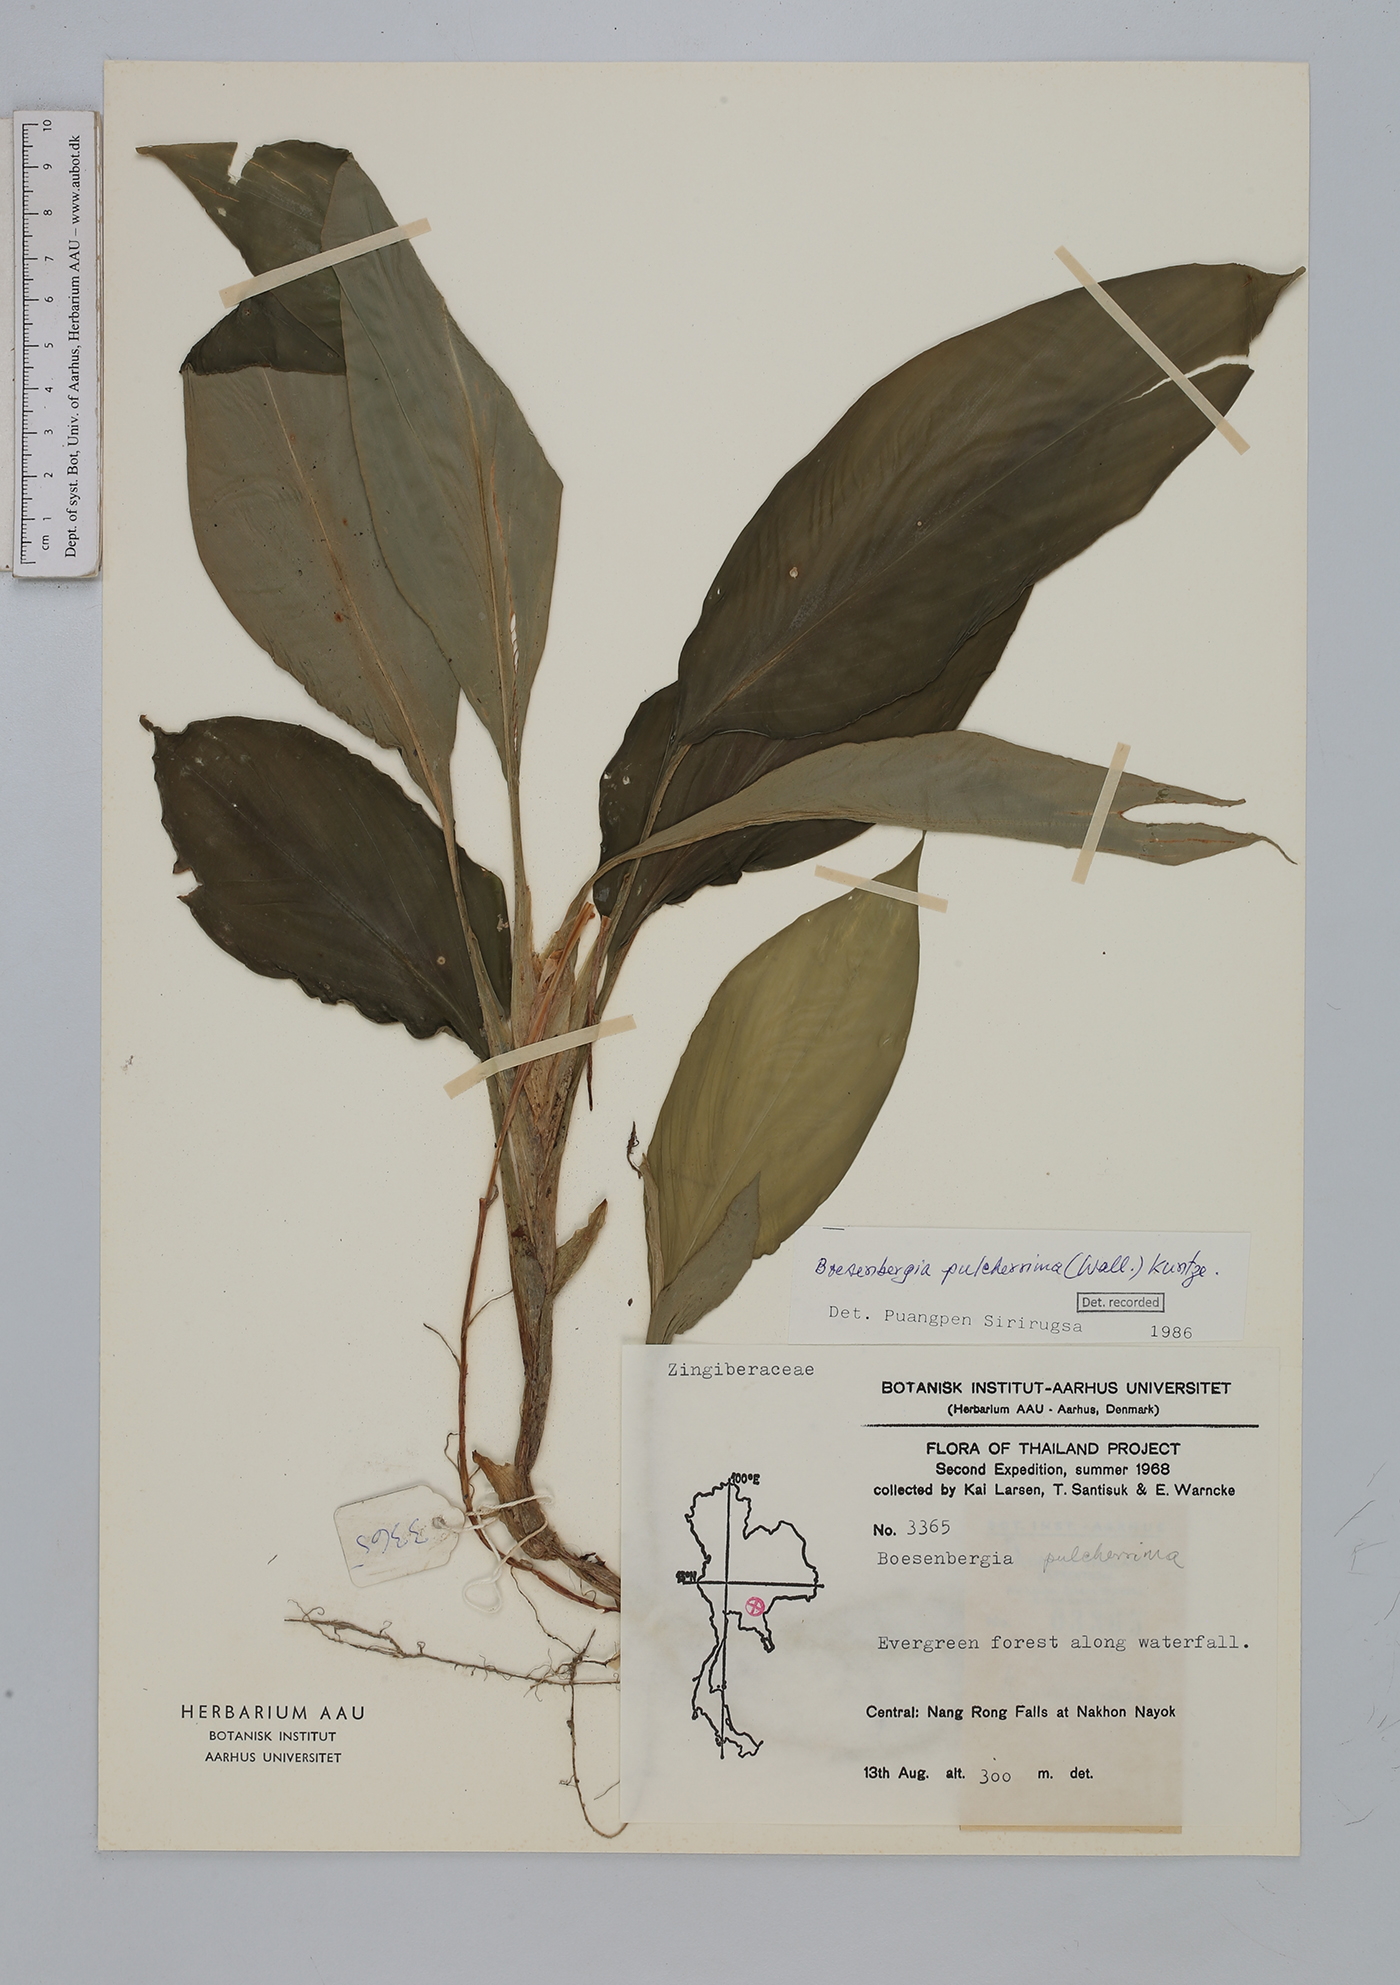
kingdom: Plantae
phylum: Tracheophyta
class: Liliopsida
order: Zingiberales
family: Zingiberaceae
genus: Boesenbergia
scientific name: Boesenbergia pulcherrima
